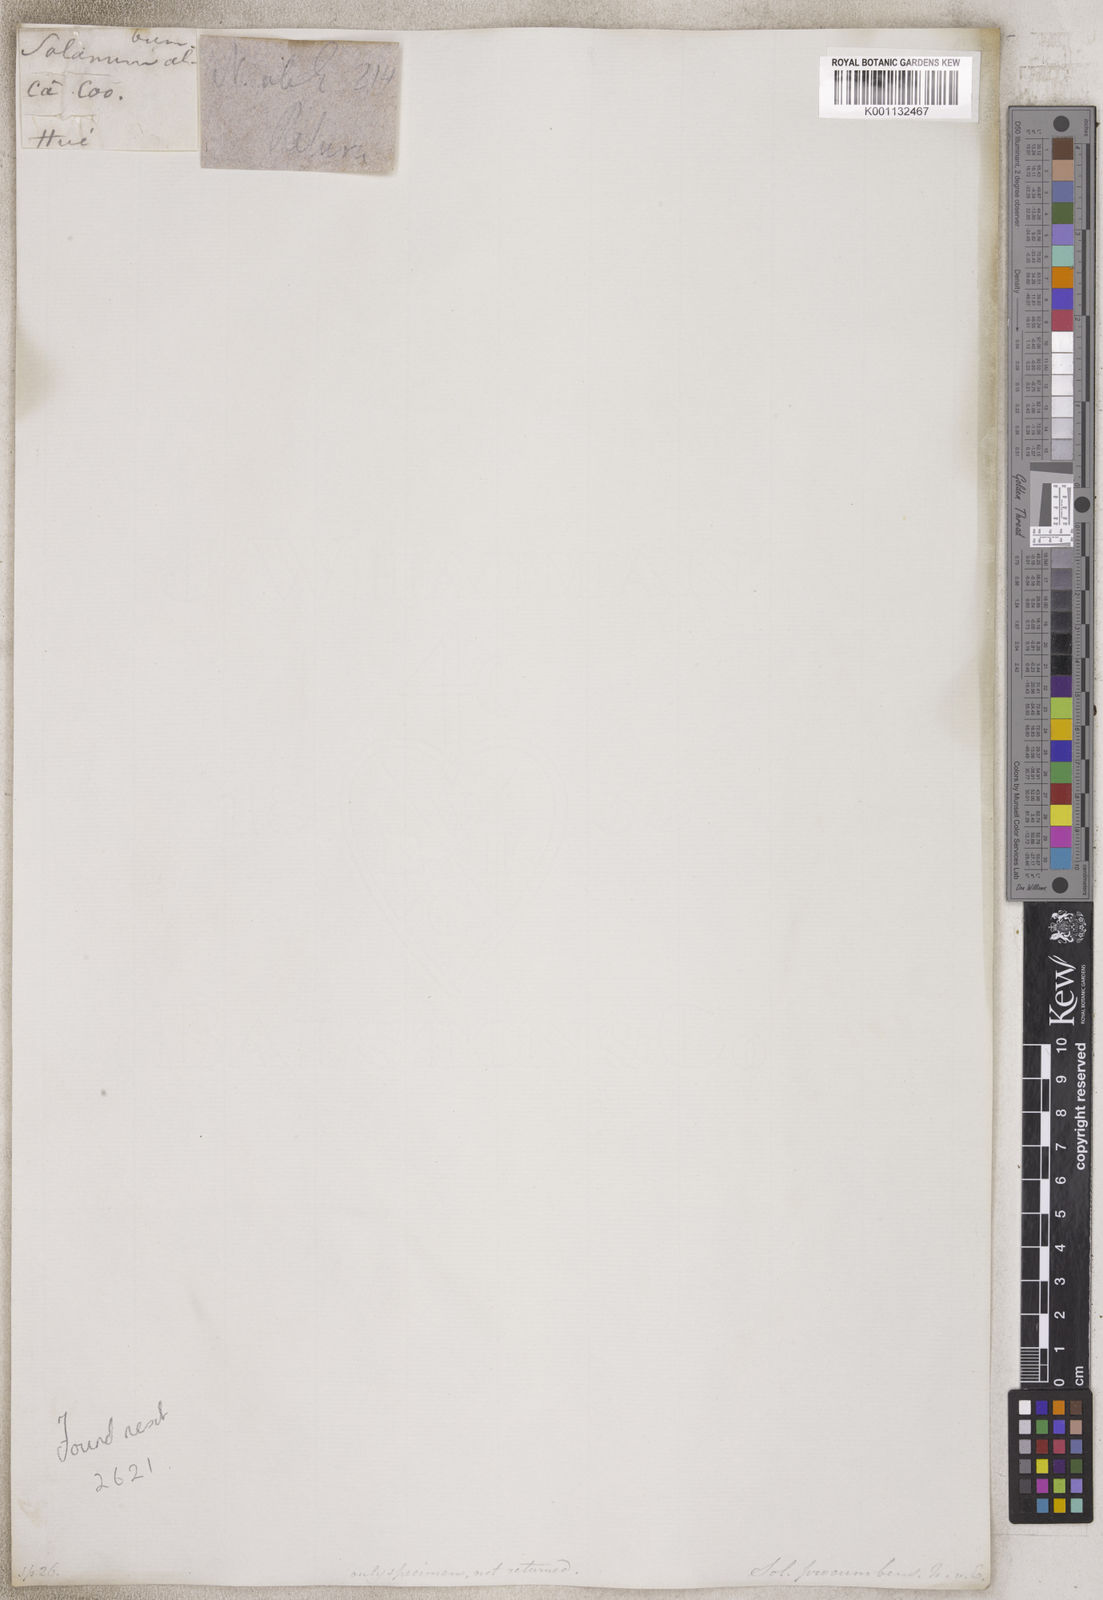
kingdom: Plantae
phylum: Tracheophyta
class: Magnoliopsida
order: Solanales
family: Solanaceae
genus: Solanum
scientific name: Solanum
